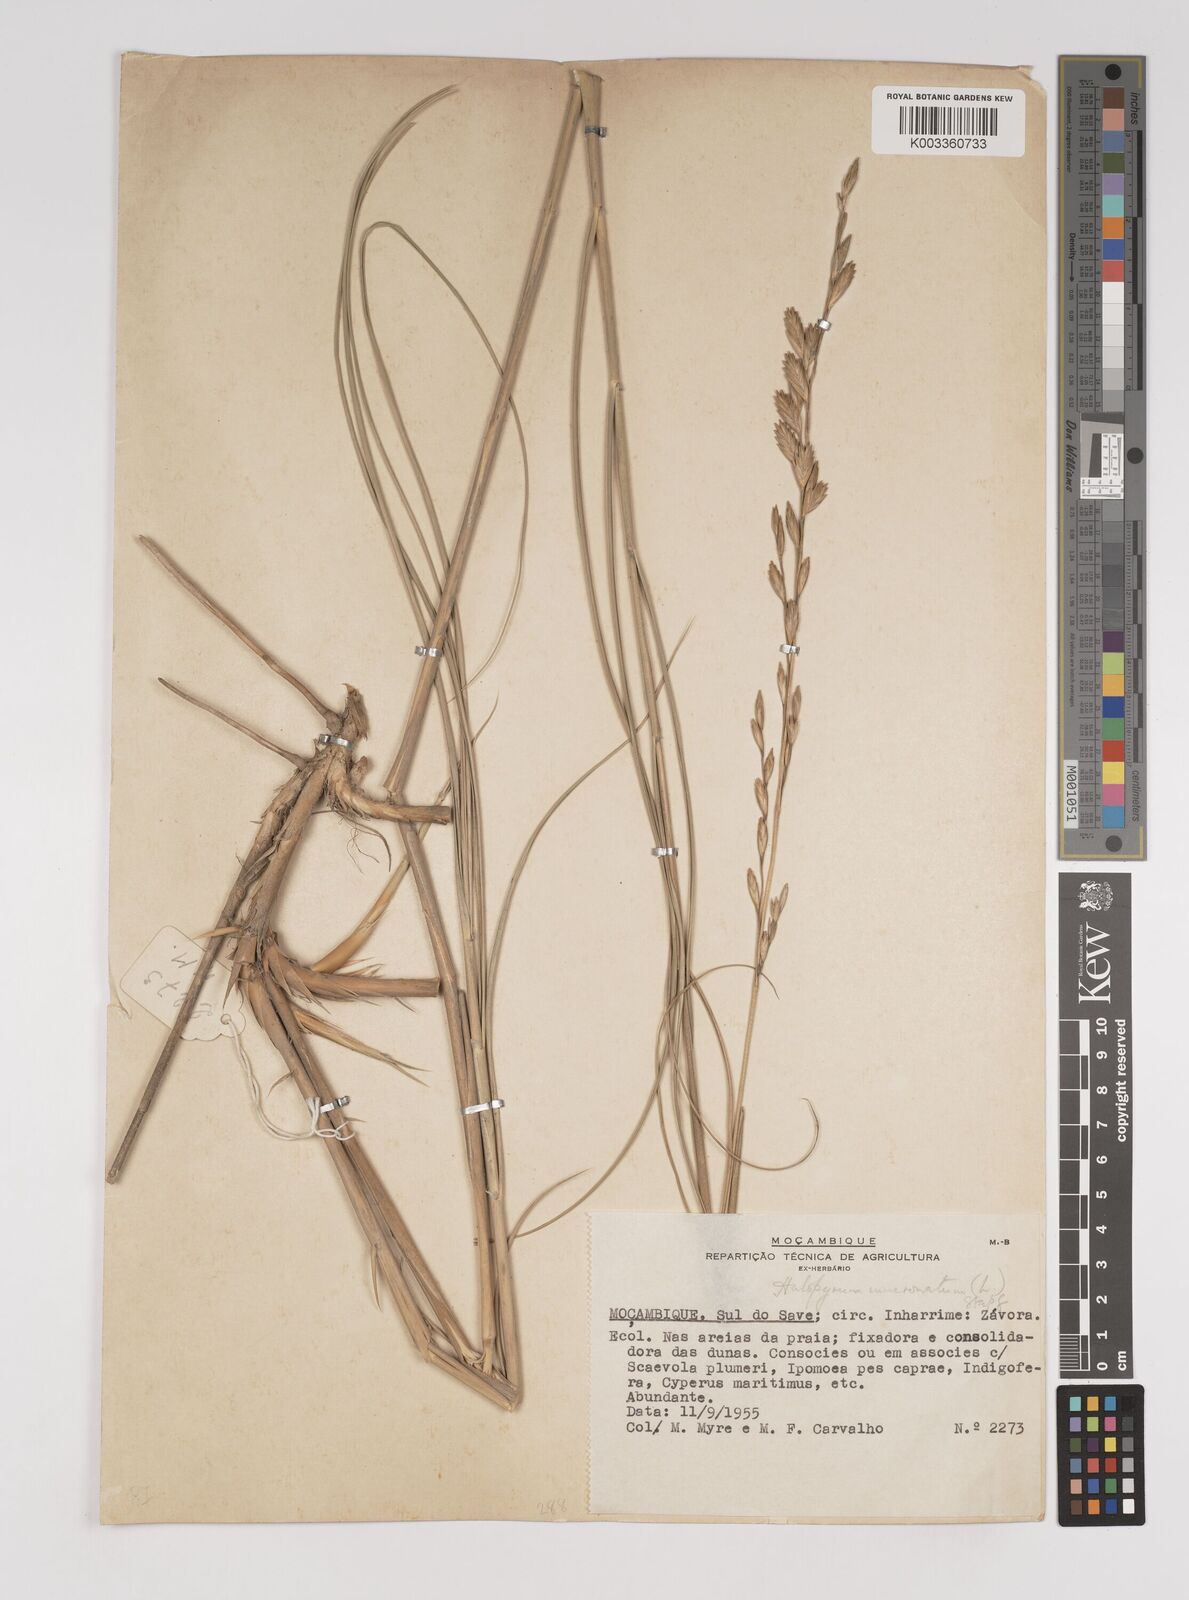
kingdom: Plantae
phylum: Tracheophyta
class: Liliopsida
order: Poales
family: Poaceae
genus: Halopyrum
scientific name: Halopyrum mucronatum
